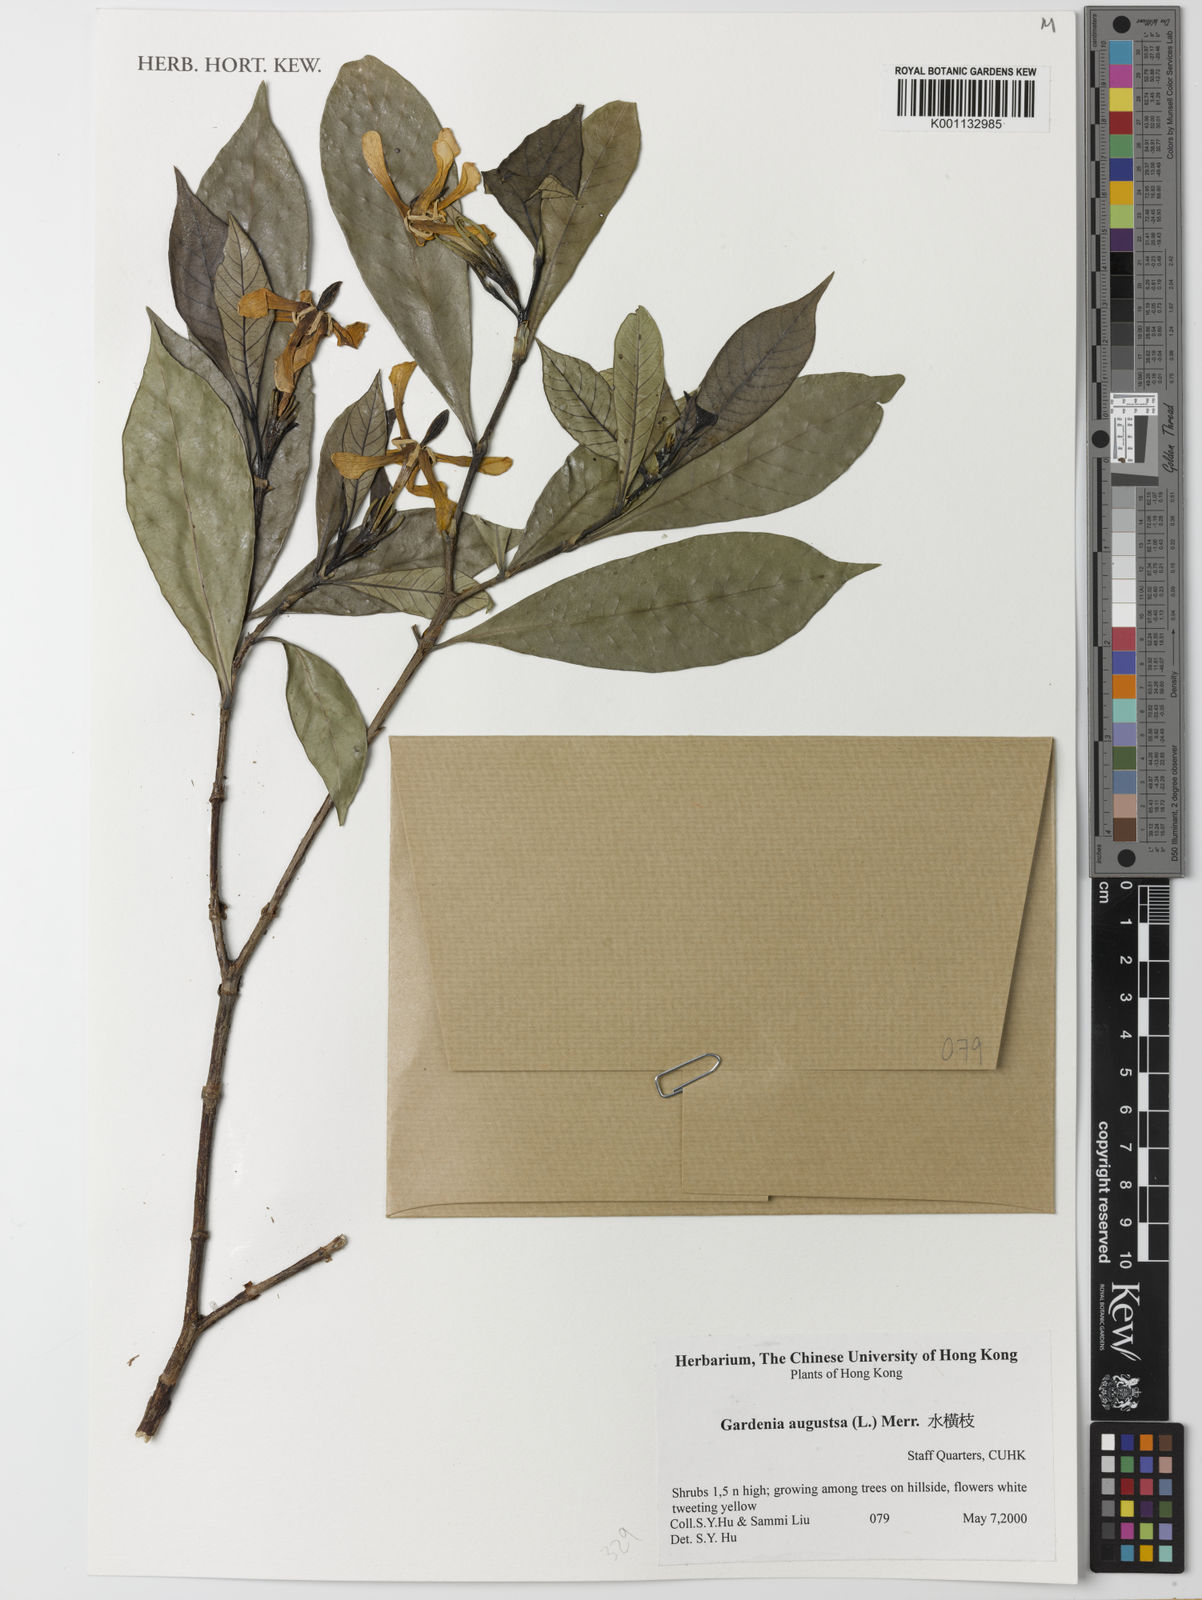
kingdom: Plantae
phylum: Tracheophyta
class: Magnoliopsida
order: Gentianales
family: Rubiaceae
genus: Gardenia
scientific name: Gardenia jasminoides
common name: Cape-jasmine
